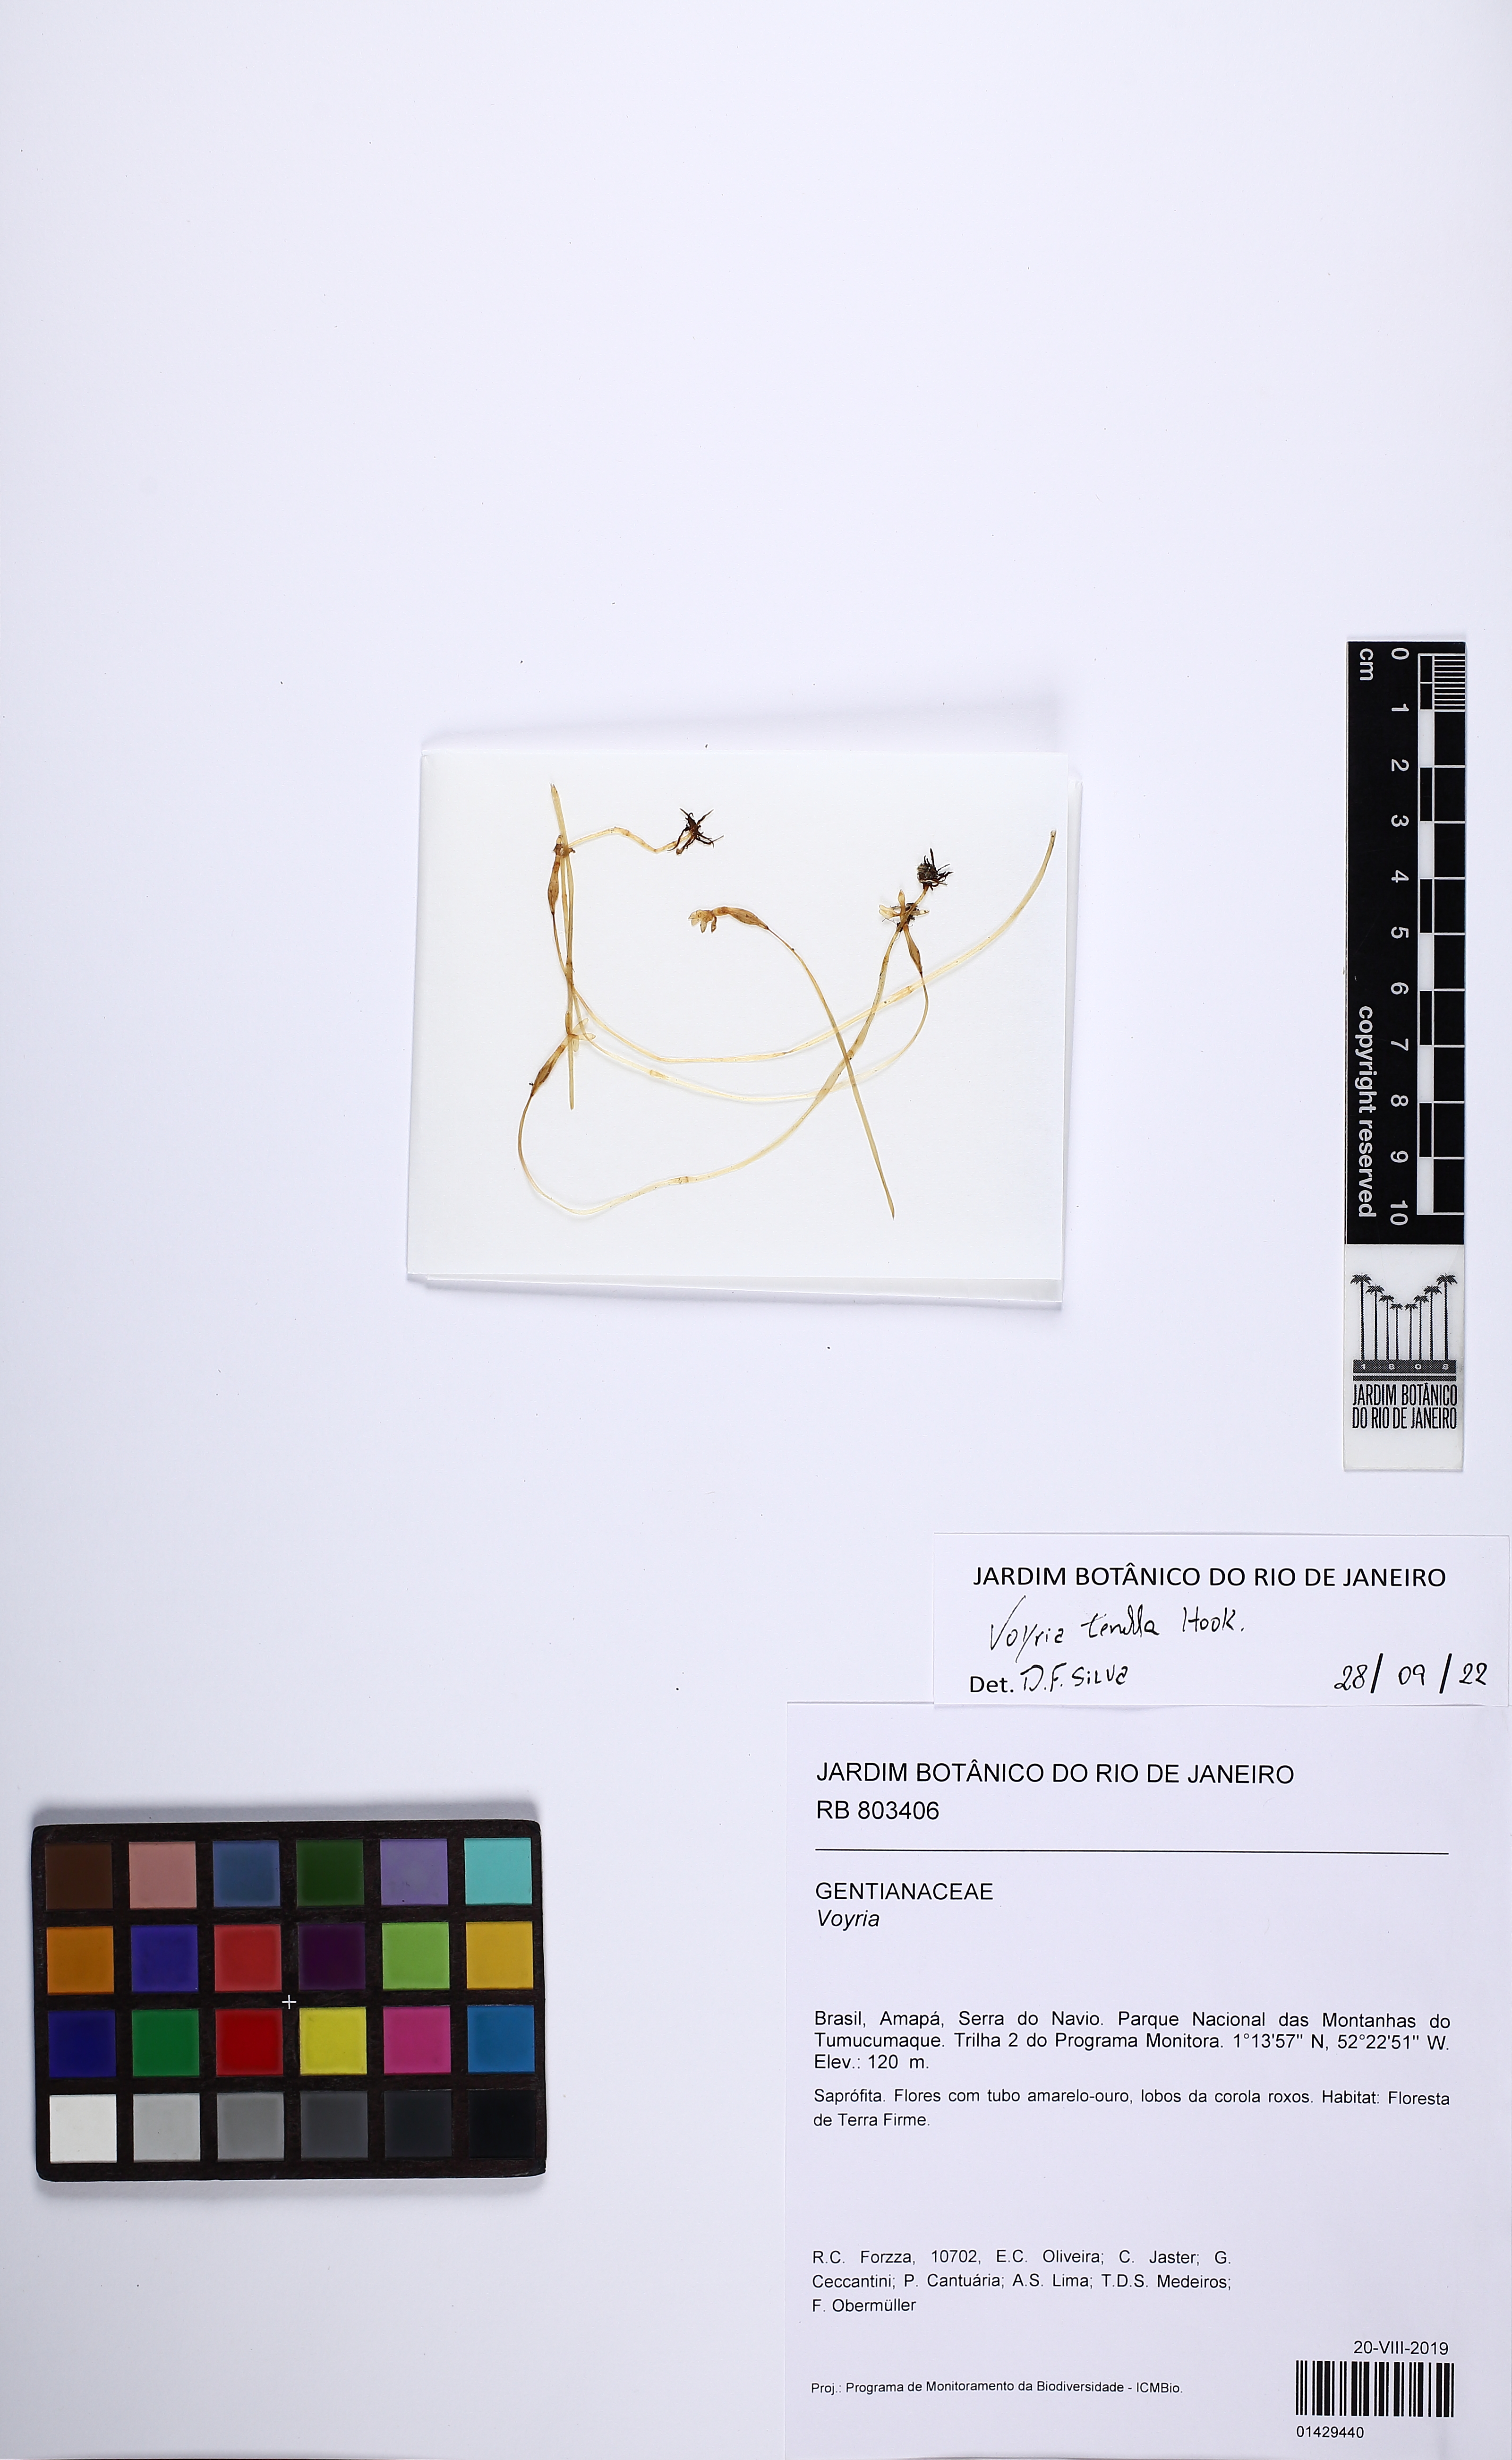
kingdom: Plantae
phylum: Tracheophyta
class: Magnoliopsida
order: Gentianales
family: Gentianaceae
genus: Voyria
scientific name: Voyria tenella
